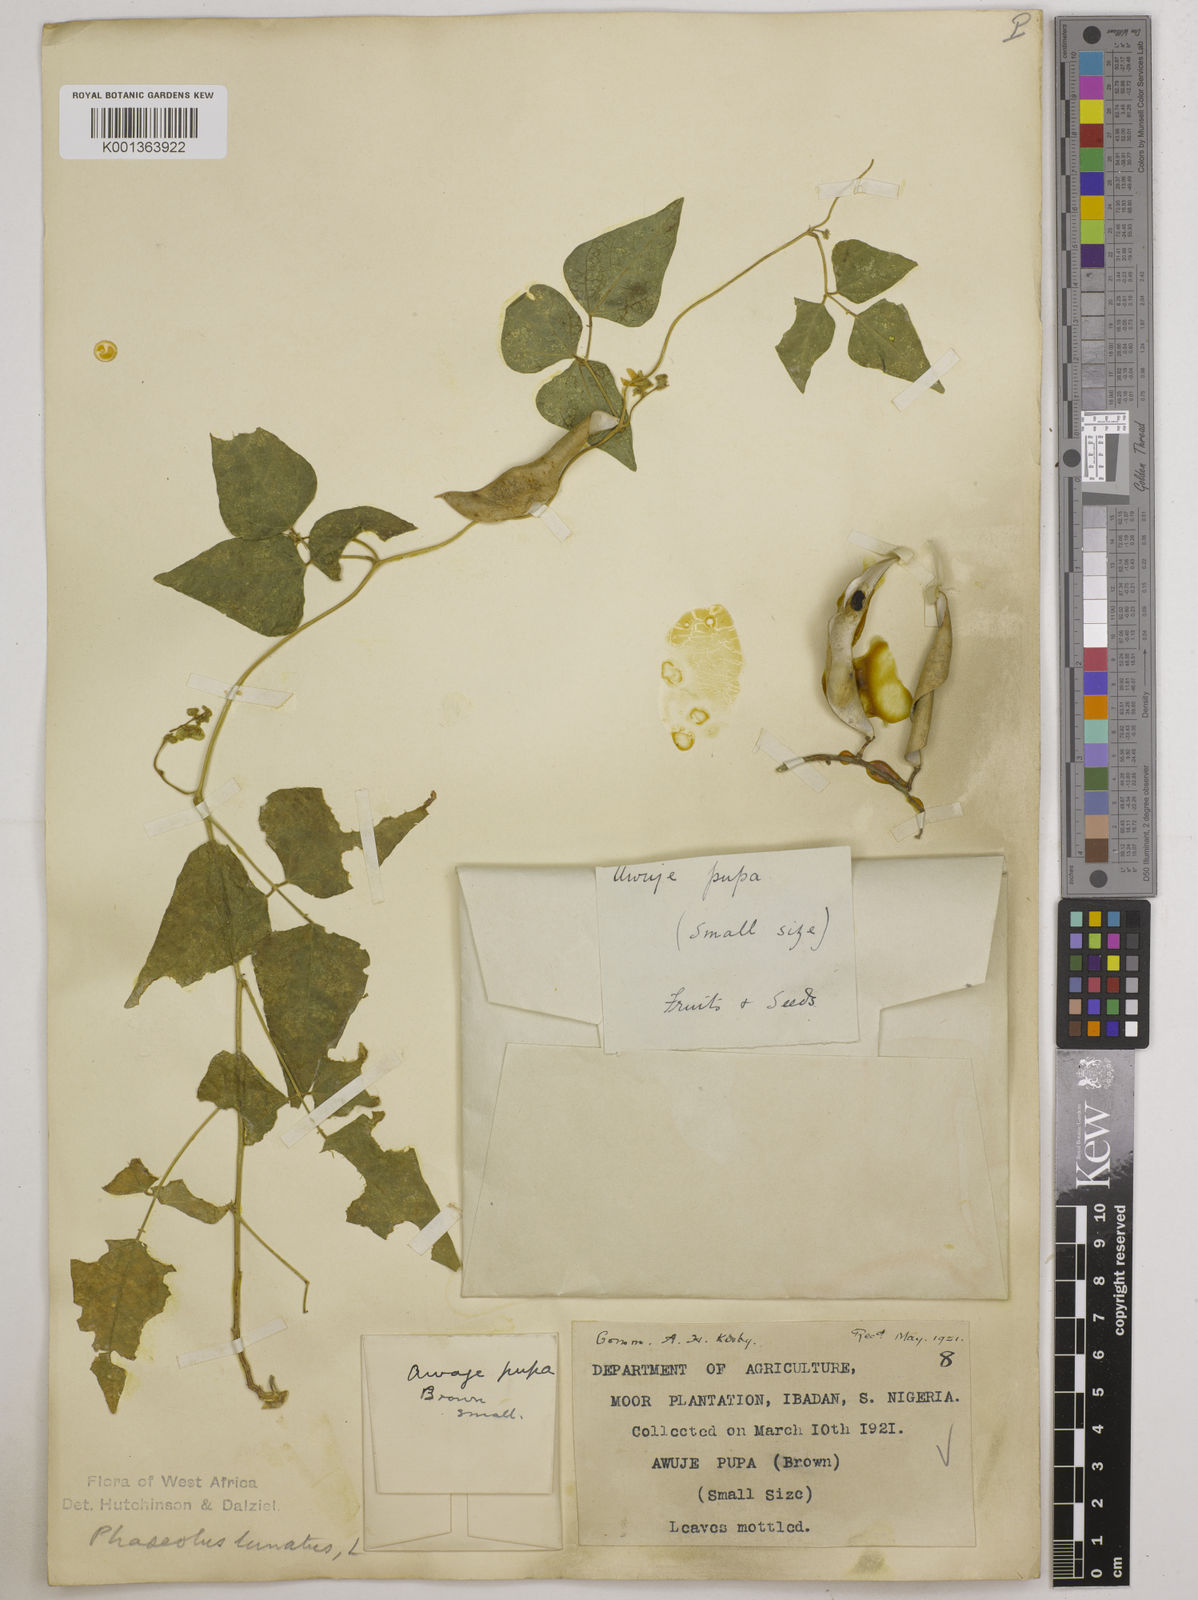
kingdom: Plantae
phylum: Tracheophyta
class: Magnoliopsida
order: Fabales
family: Fabaceae
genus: Phaseolus
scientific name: Phaseolus lunatus
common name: Sieva bean
